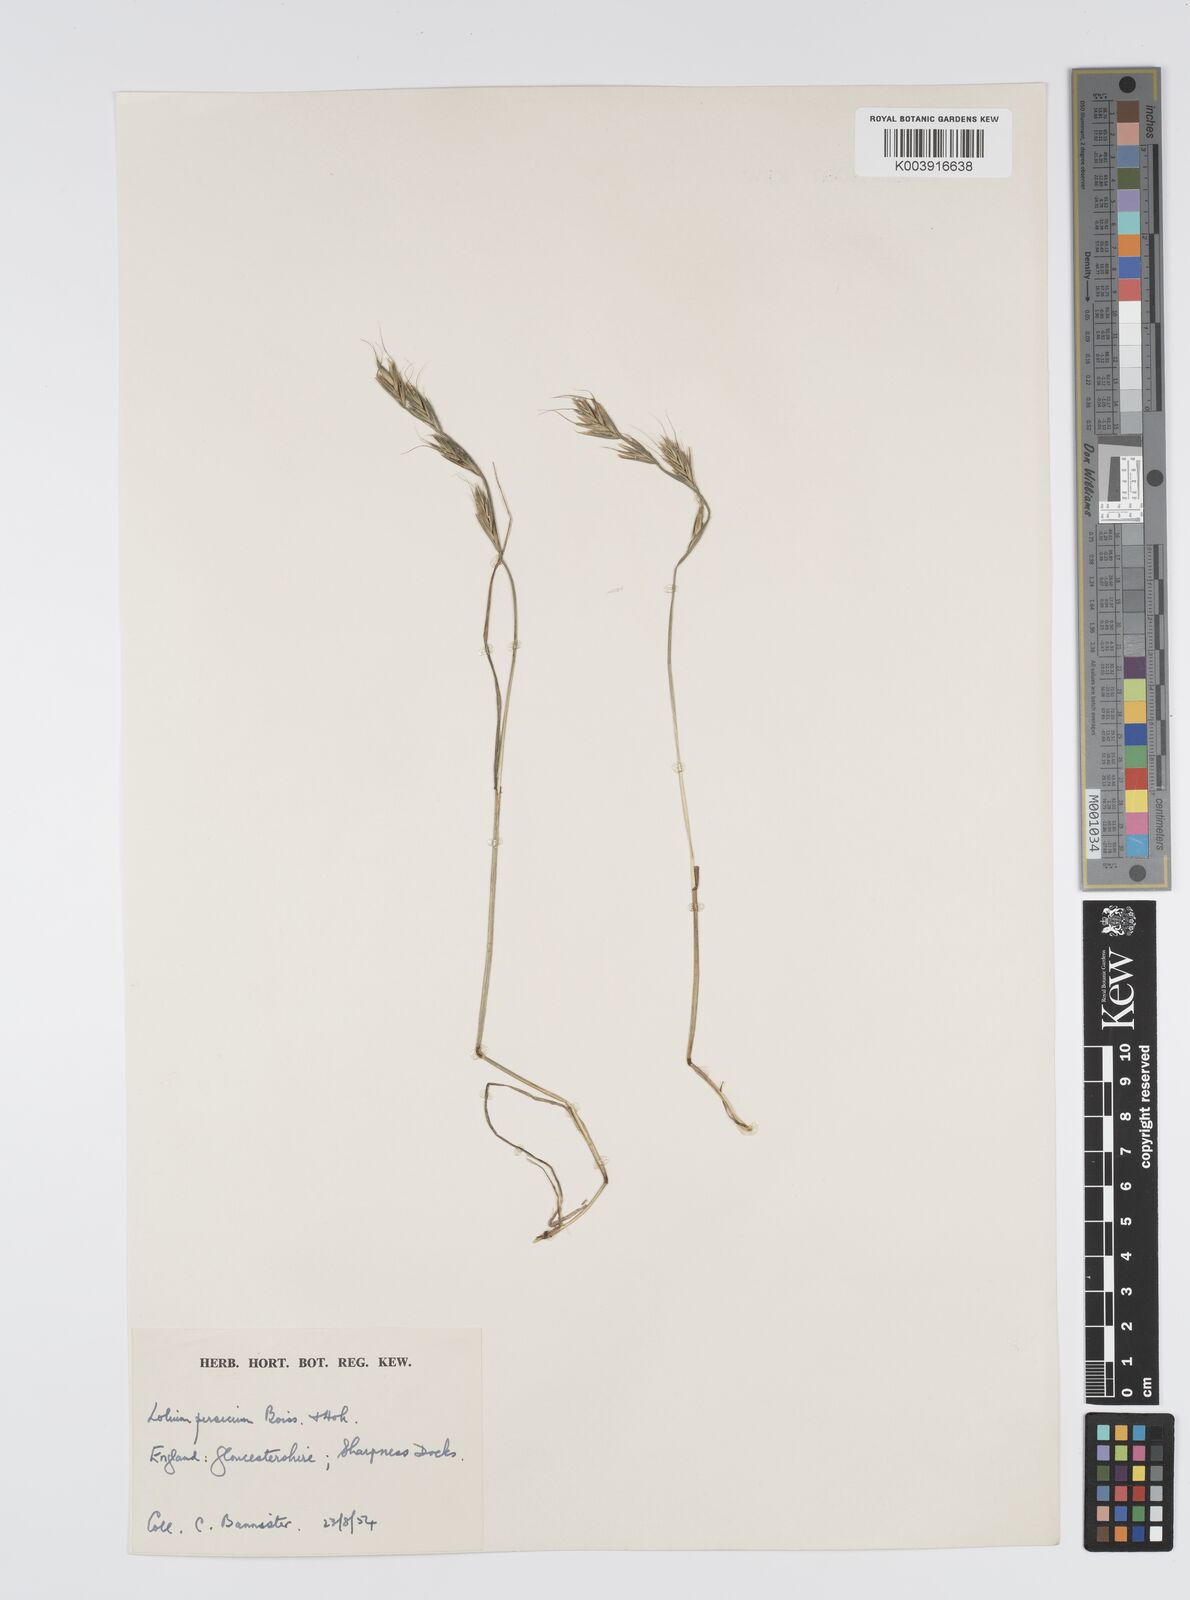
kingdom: Plantae
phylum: Tracheophyta
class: Liliopsida
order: Poales
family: Poaceae
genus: Lolium
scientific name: Lolium persicum
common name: Persian ryegrass
